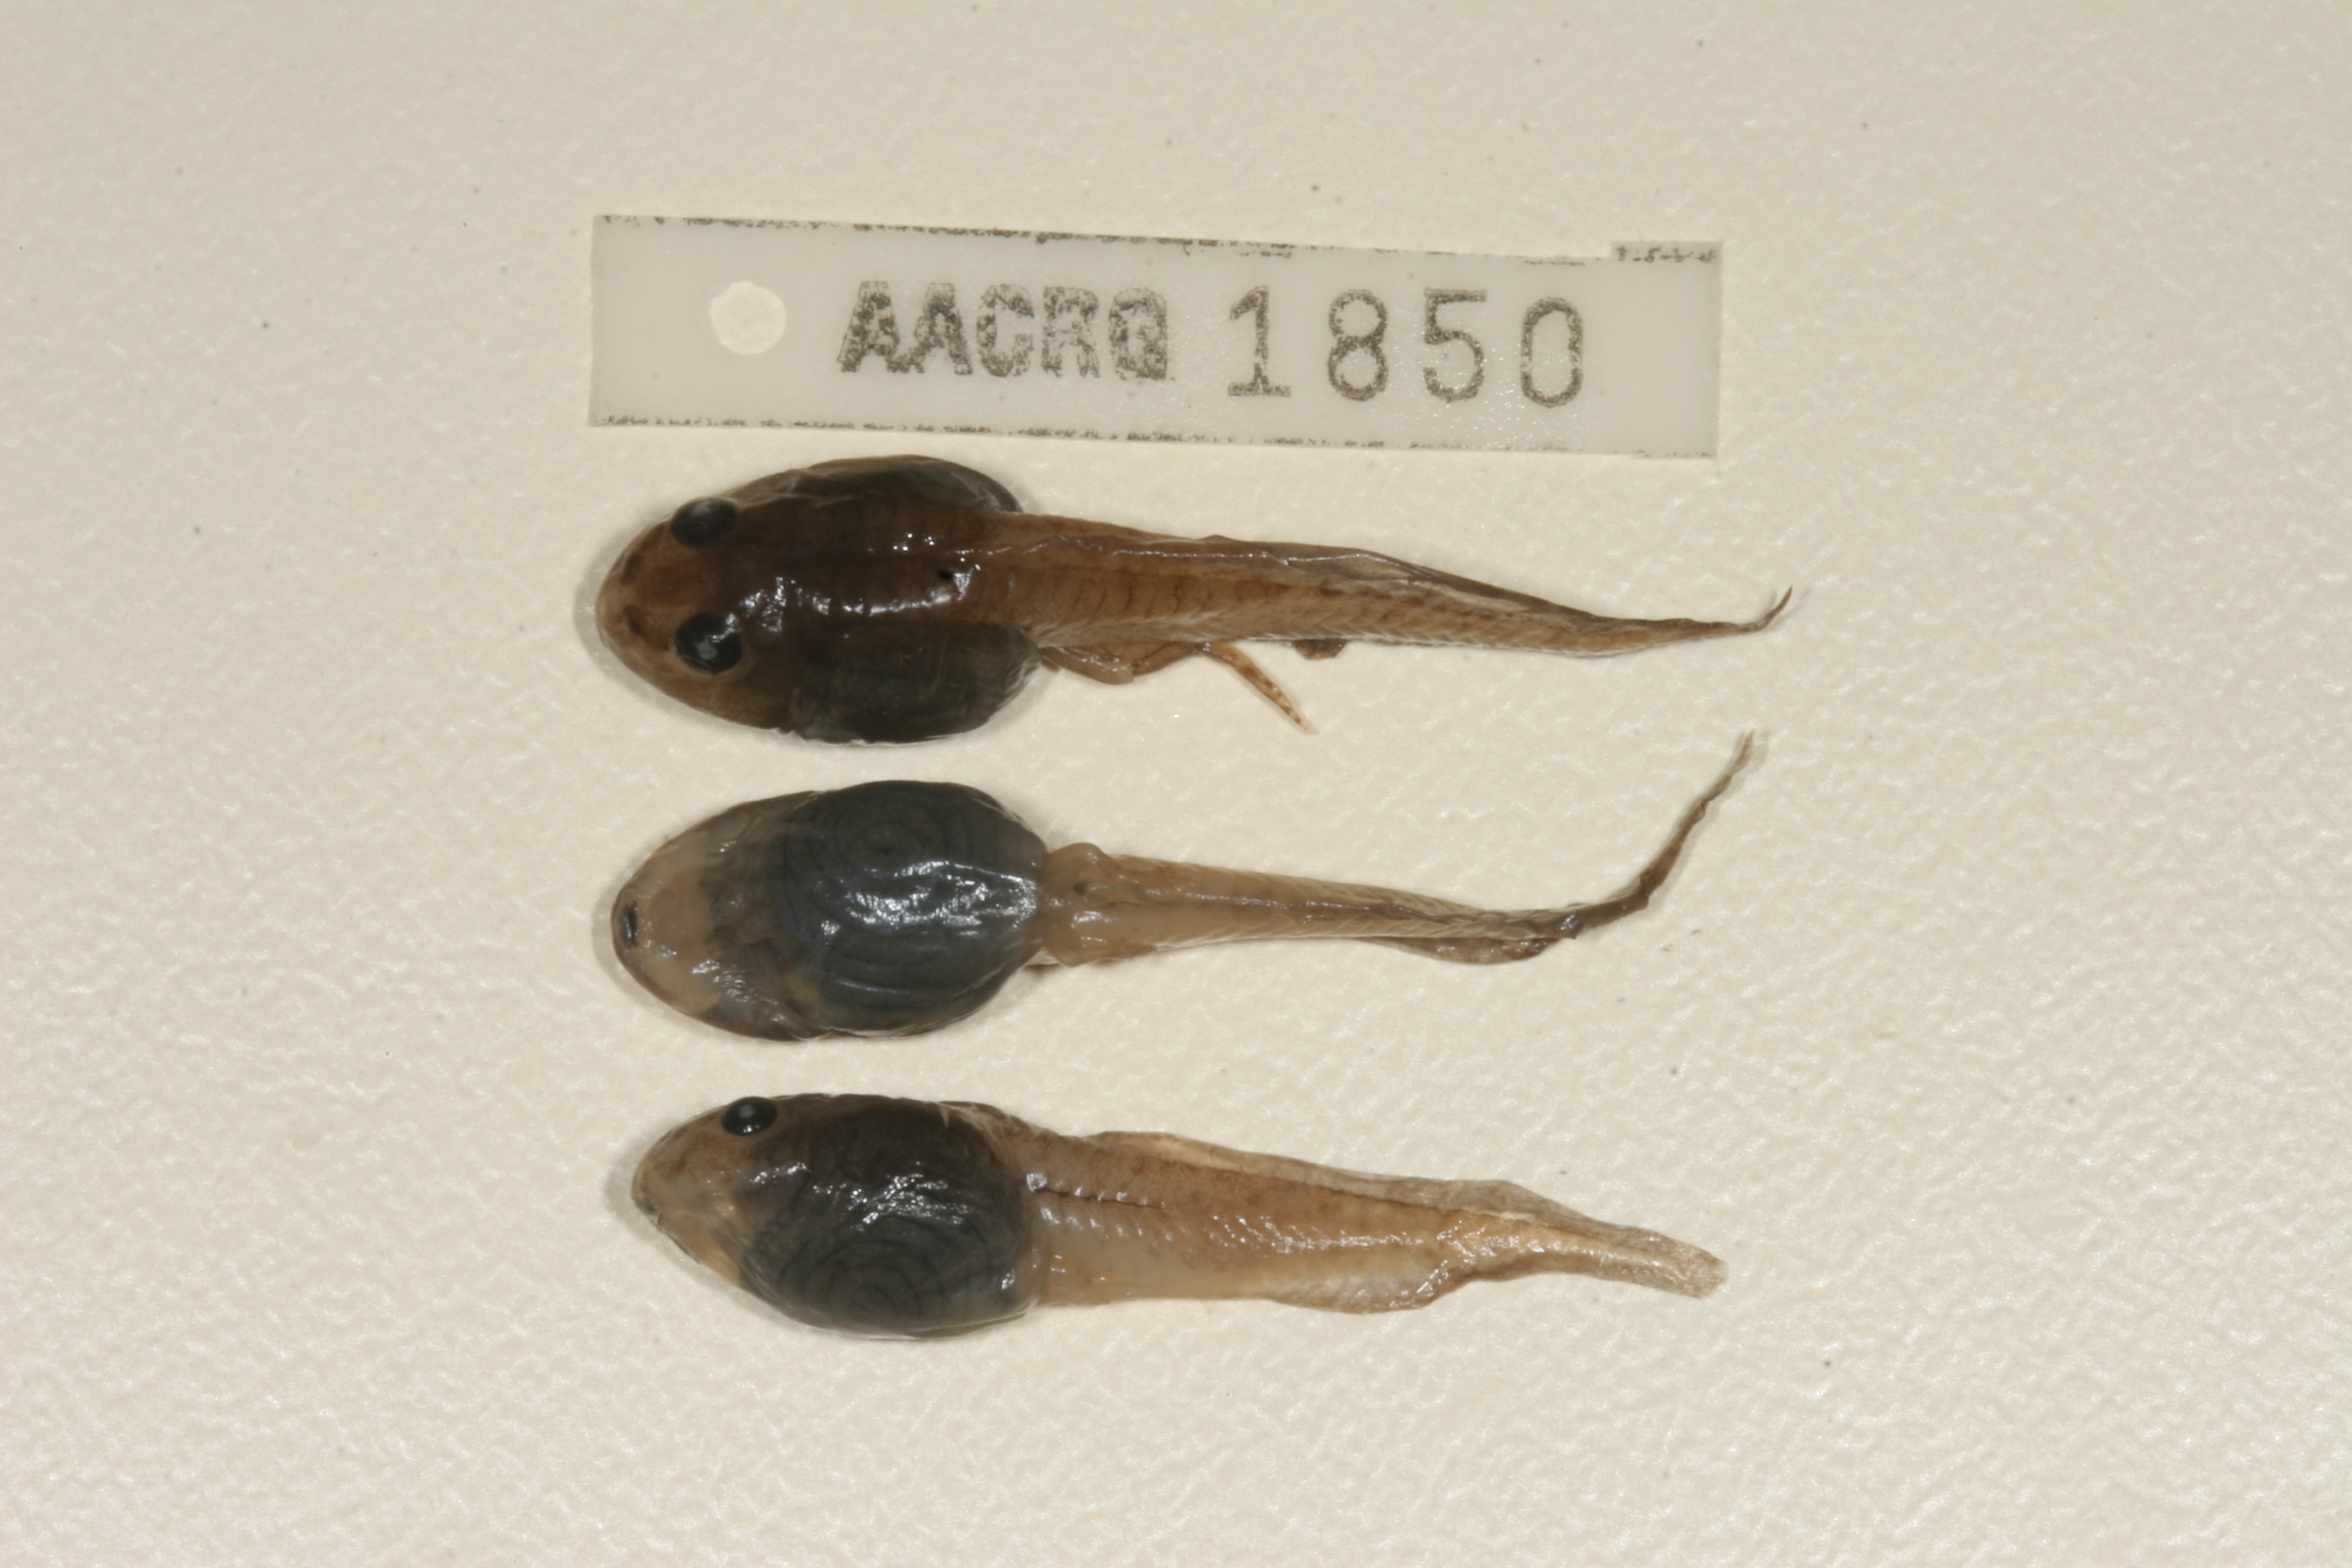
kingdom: Animalia
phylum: Chordata
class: Amphibia
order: Anura
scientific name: Anura
